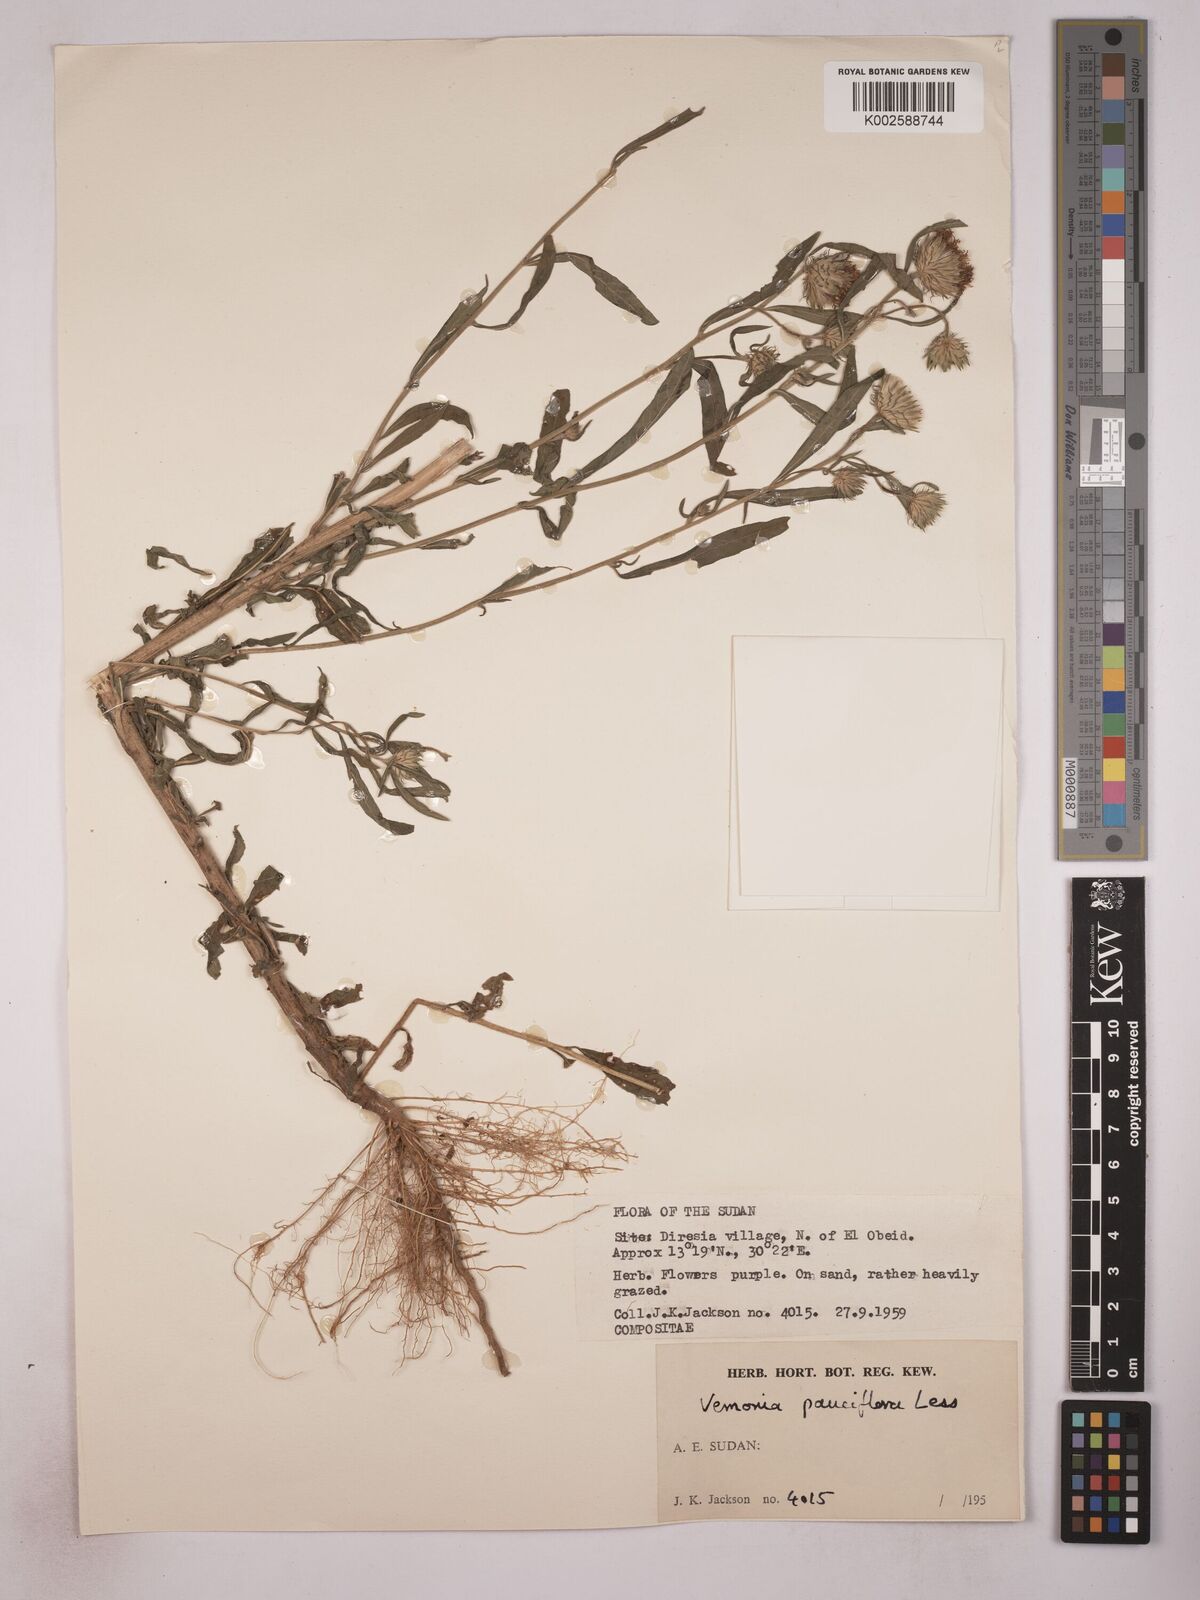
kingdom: Plantae
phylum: Tracheophyta
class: Magnoliopsida
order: Asterales
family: Asteraceae
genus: Vernonia
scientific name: Vernonia
